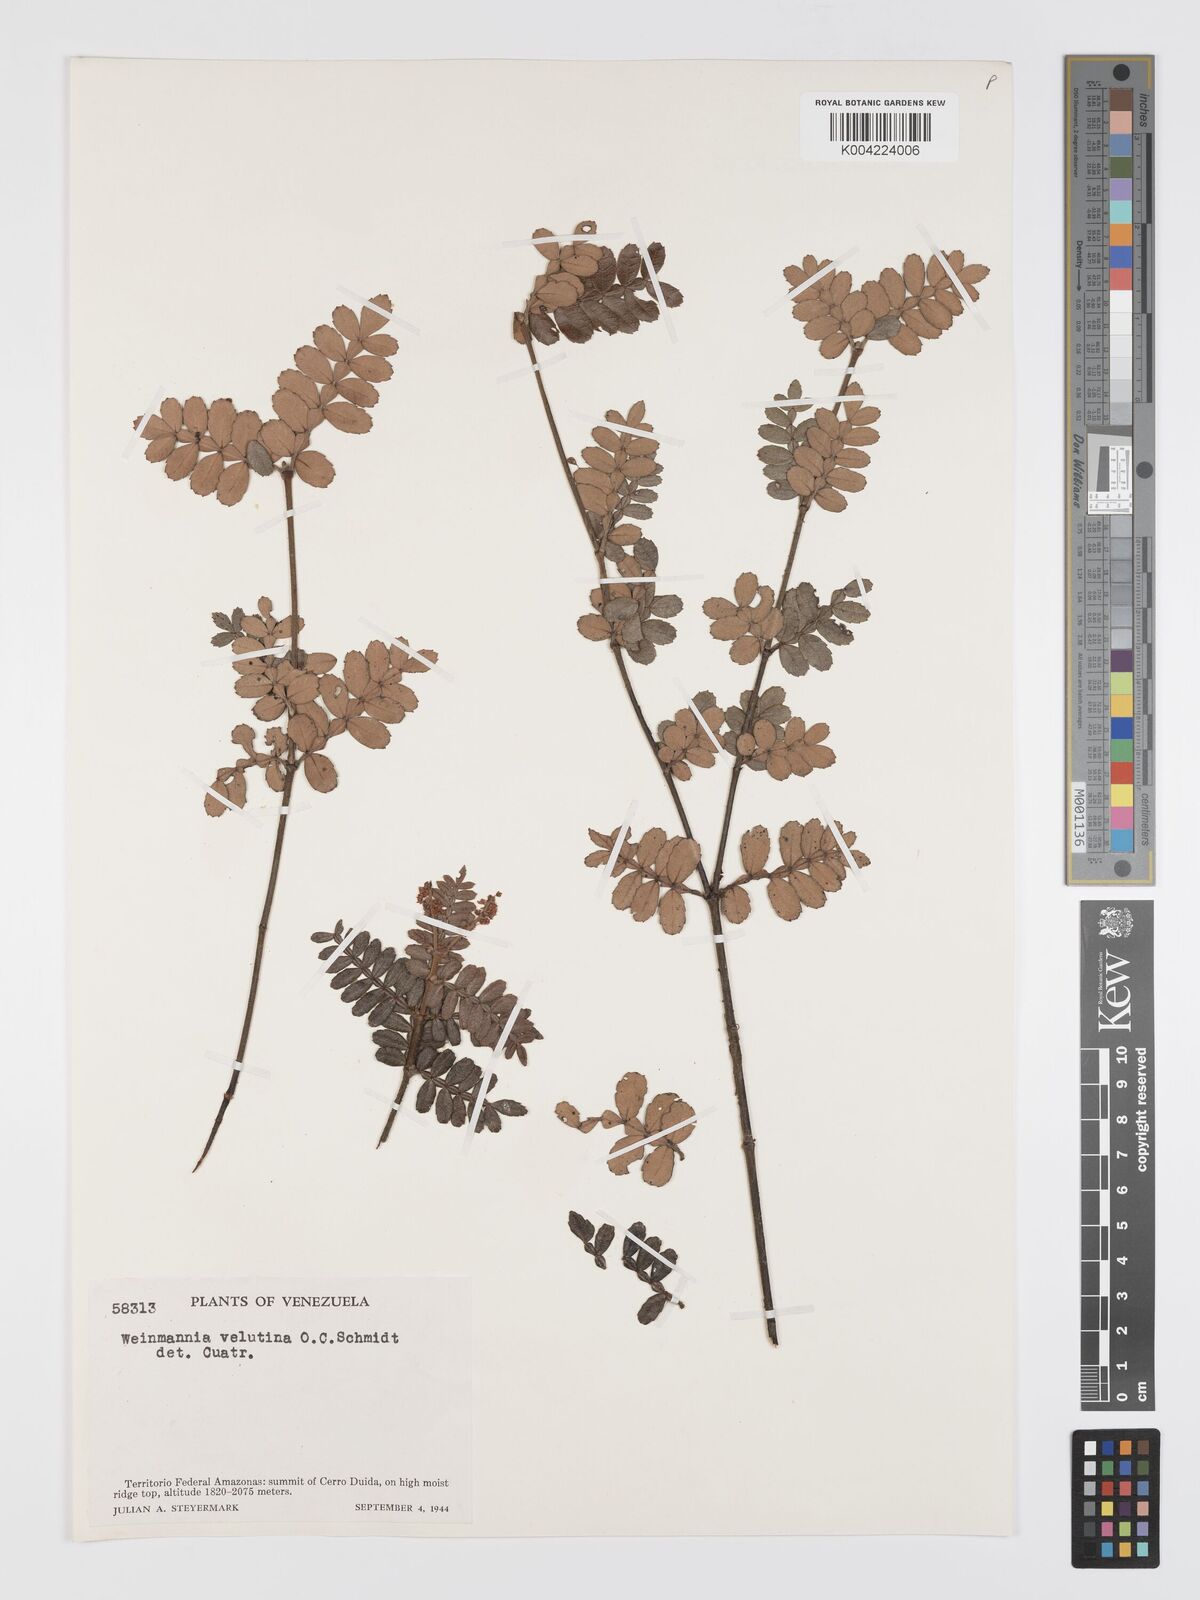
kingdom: Plantae
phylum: Tracheophyta
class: Magnoliopsida
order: Oxalidales
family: Cunoniaceae
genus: Weinmannia
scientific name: Weinmannia velutina
